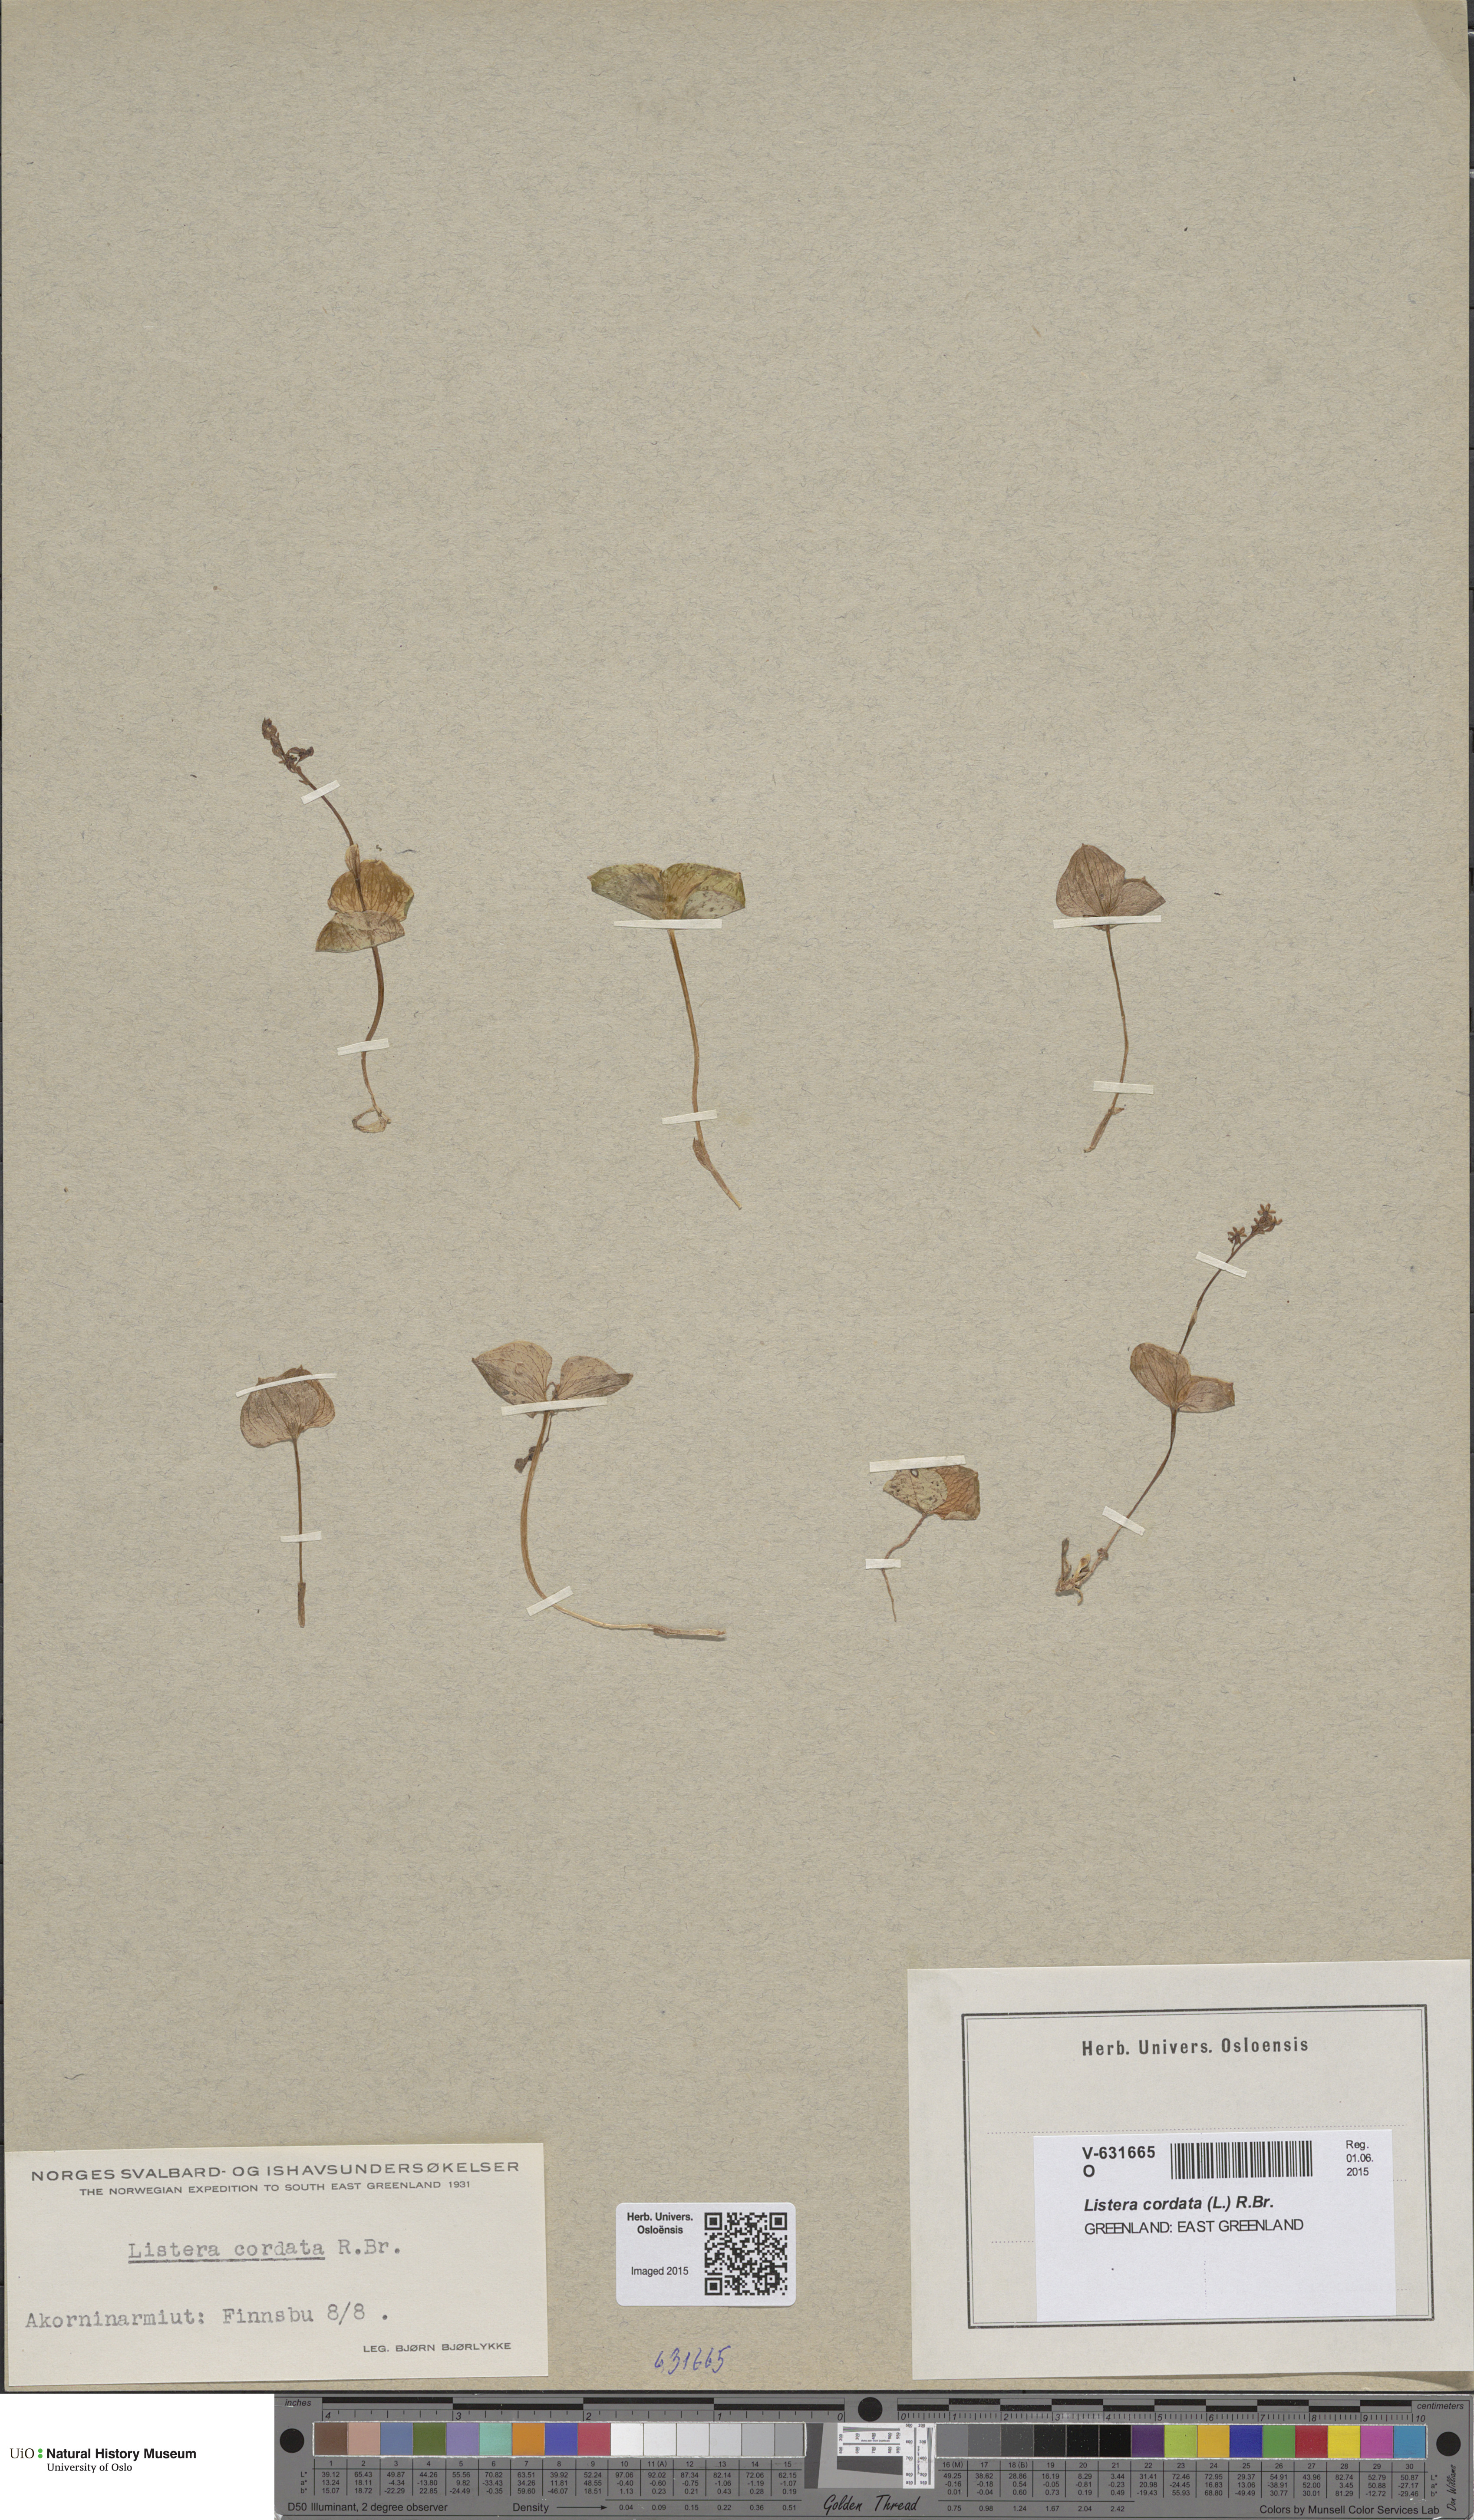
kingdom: Plantae
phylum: Tracheophyta
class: Liliopsida
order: Asparagales
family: Orchidaceae
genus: Neottia
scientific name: Neottia cordata
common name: Lesser twayblade
